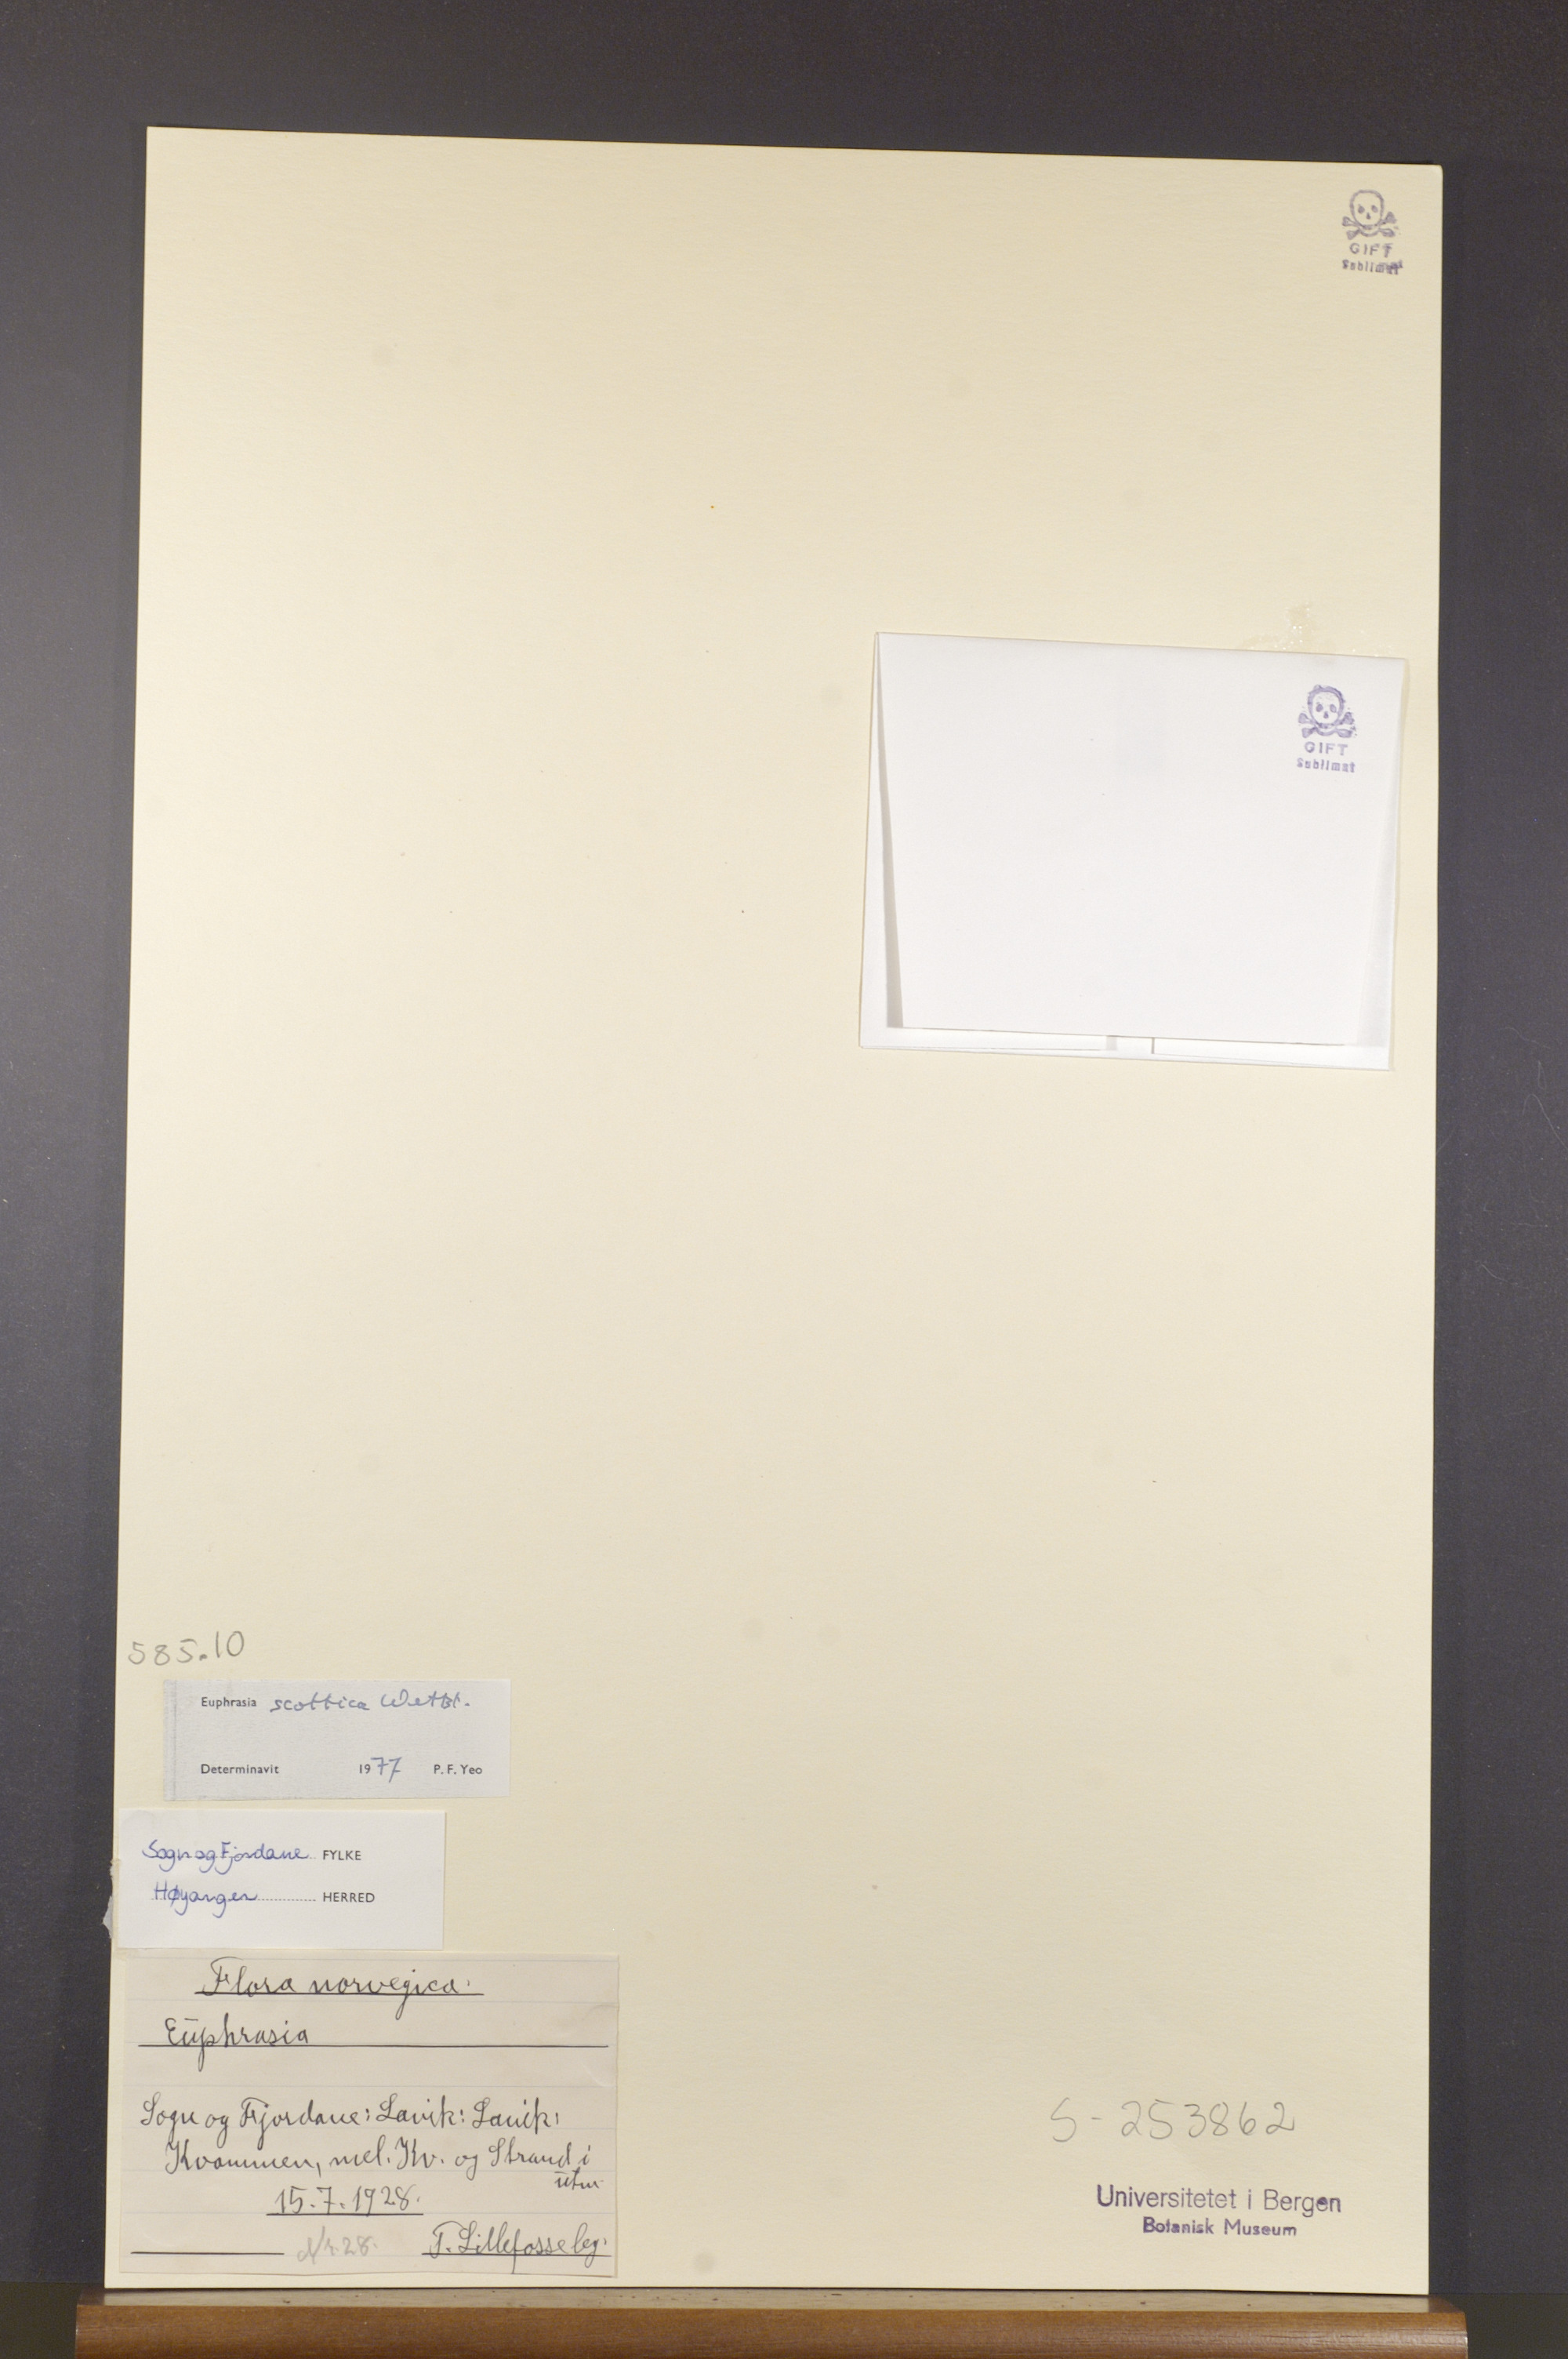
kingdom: Plantae
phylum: Tracheophyta
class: Magnoliopsida
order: Lamiales
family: Orobanchaceae
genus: Euphrasia
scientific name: Euphrasia scottica
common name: Slender scottish eyebright
